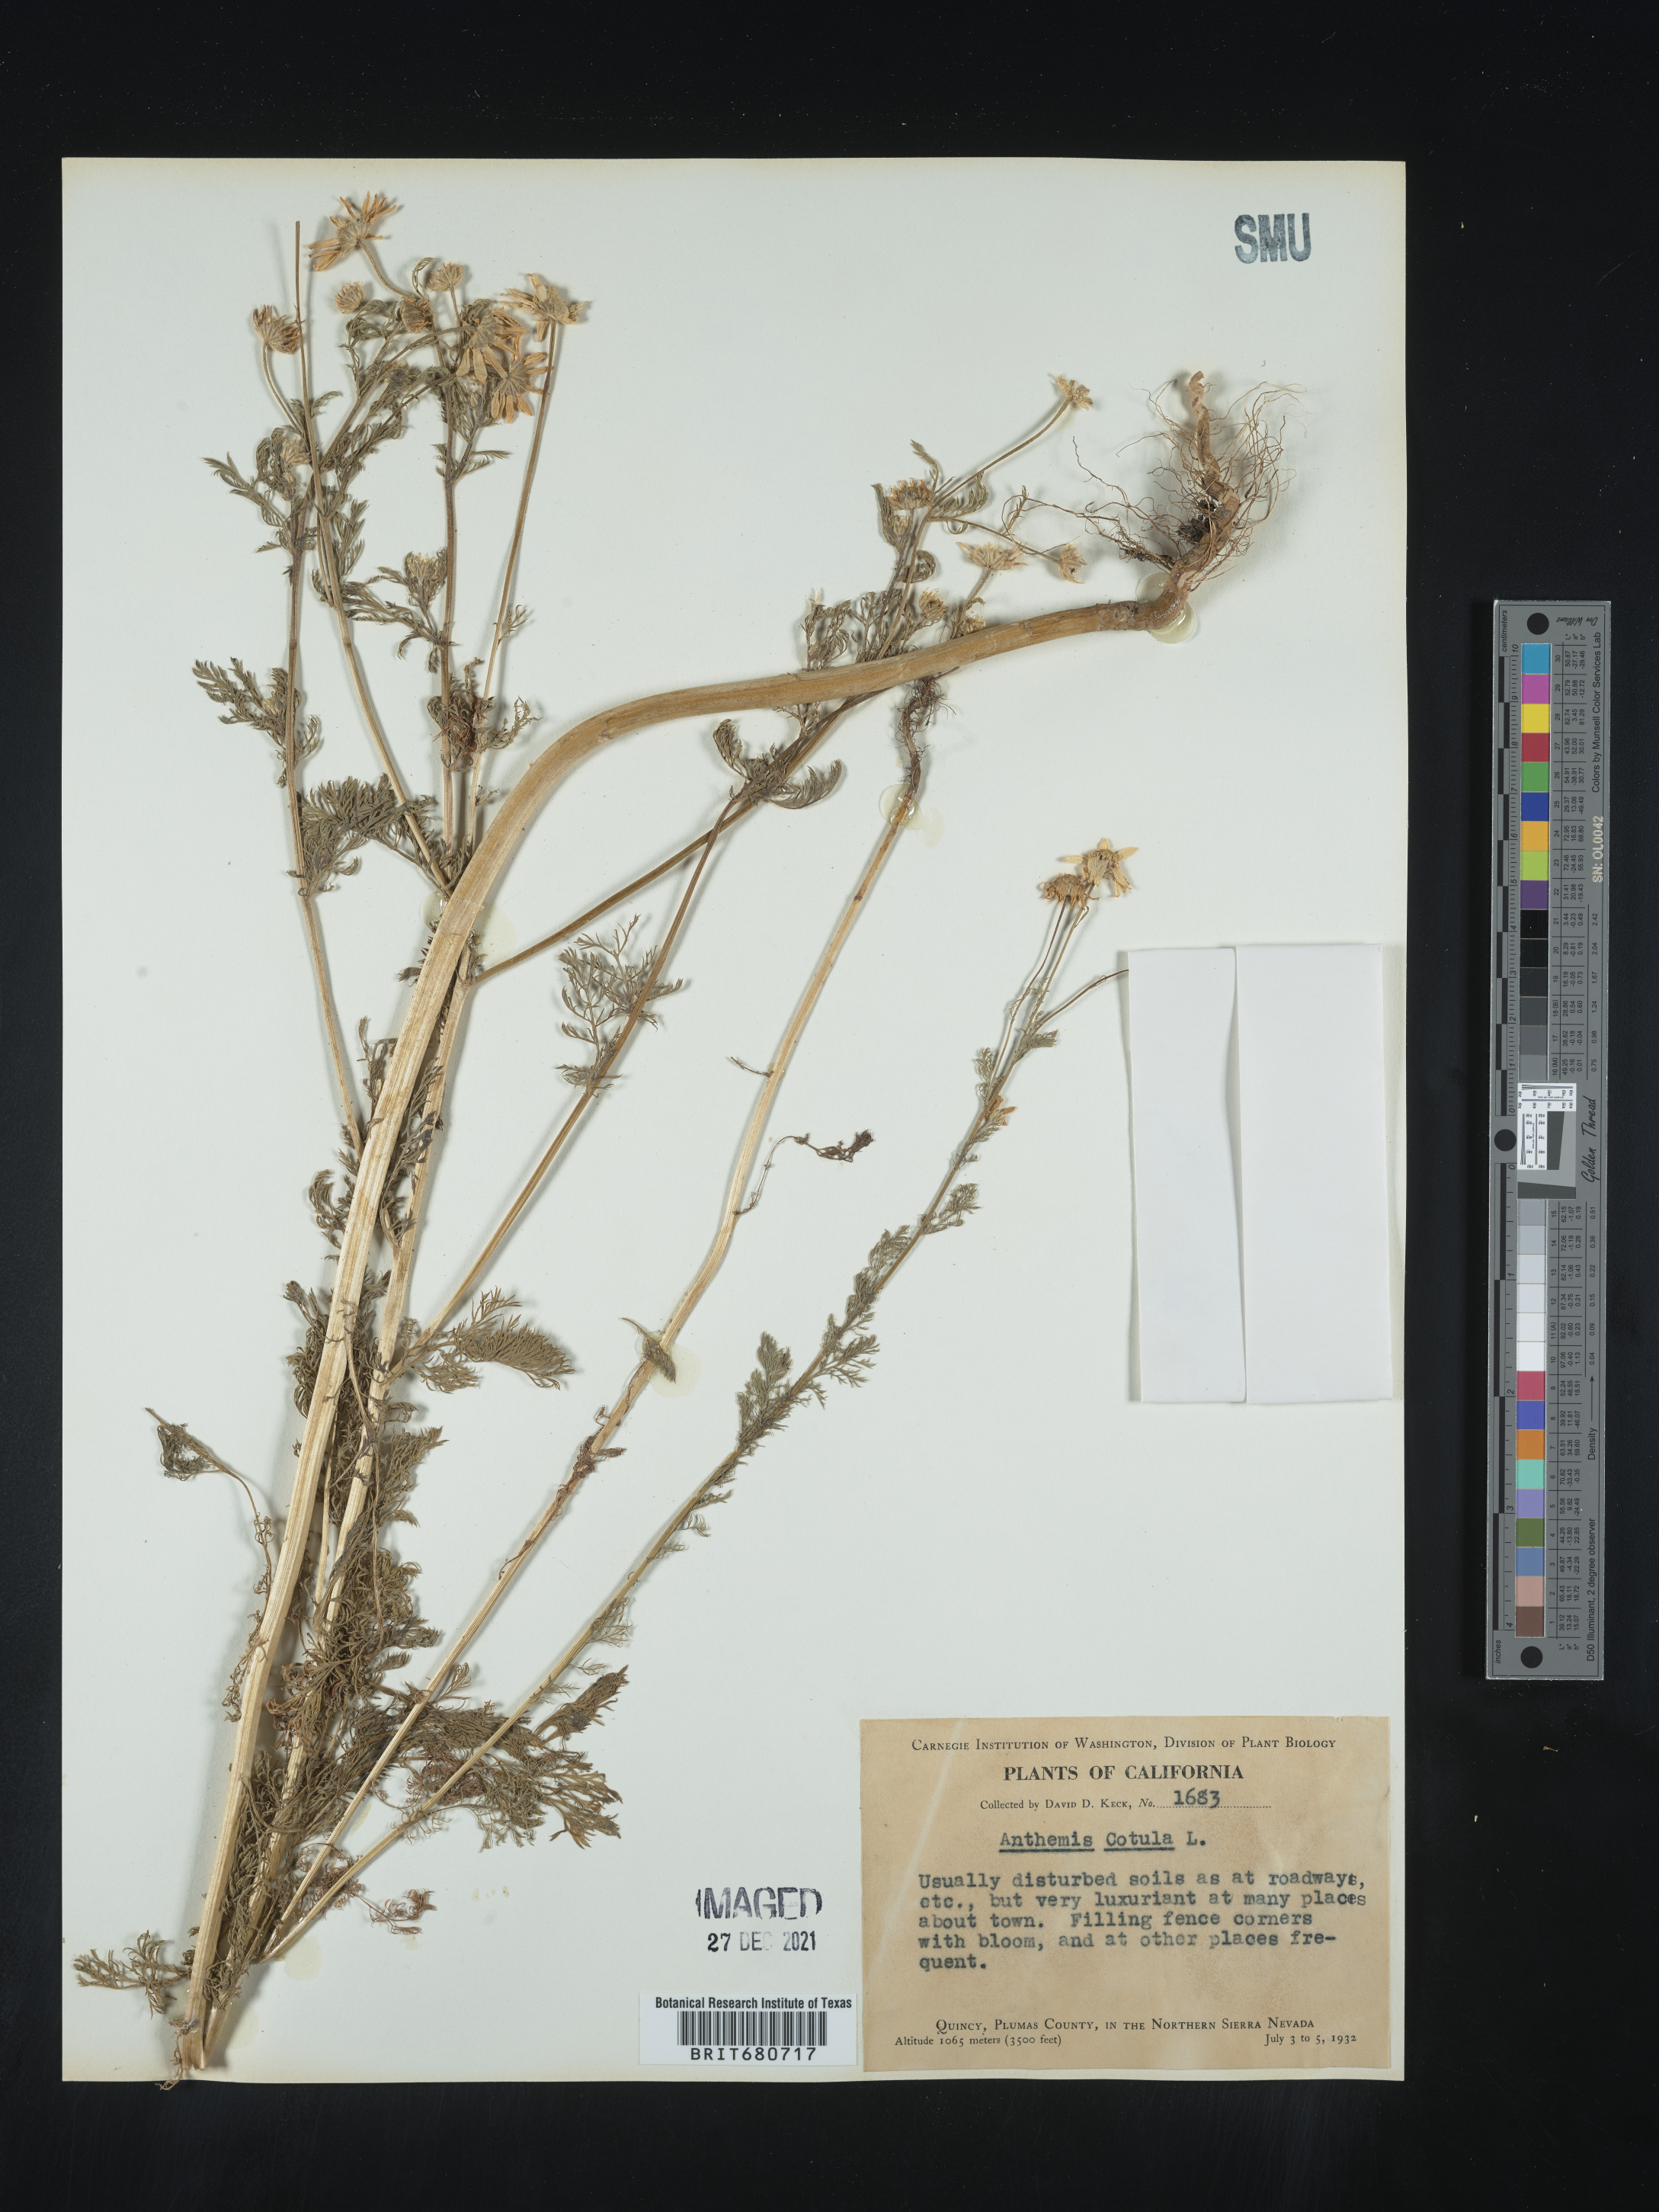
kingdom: Plantae
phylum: Tracheophyta
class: Magnoliopsida
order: Asterales
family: Asteraceae
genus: Anthemis
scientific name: Anthemis cotula
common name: Stinking chamomile
